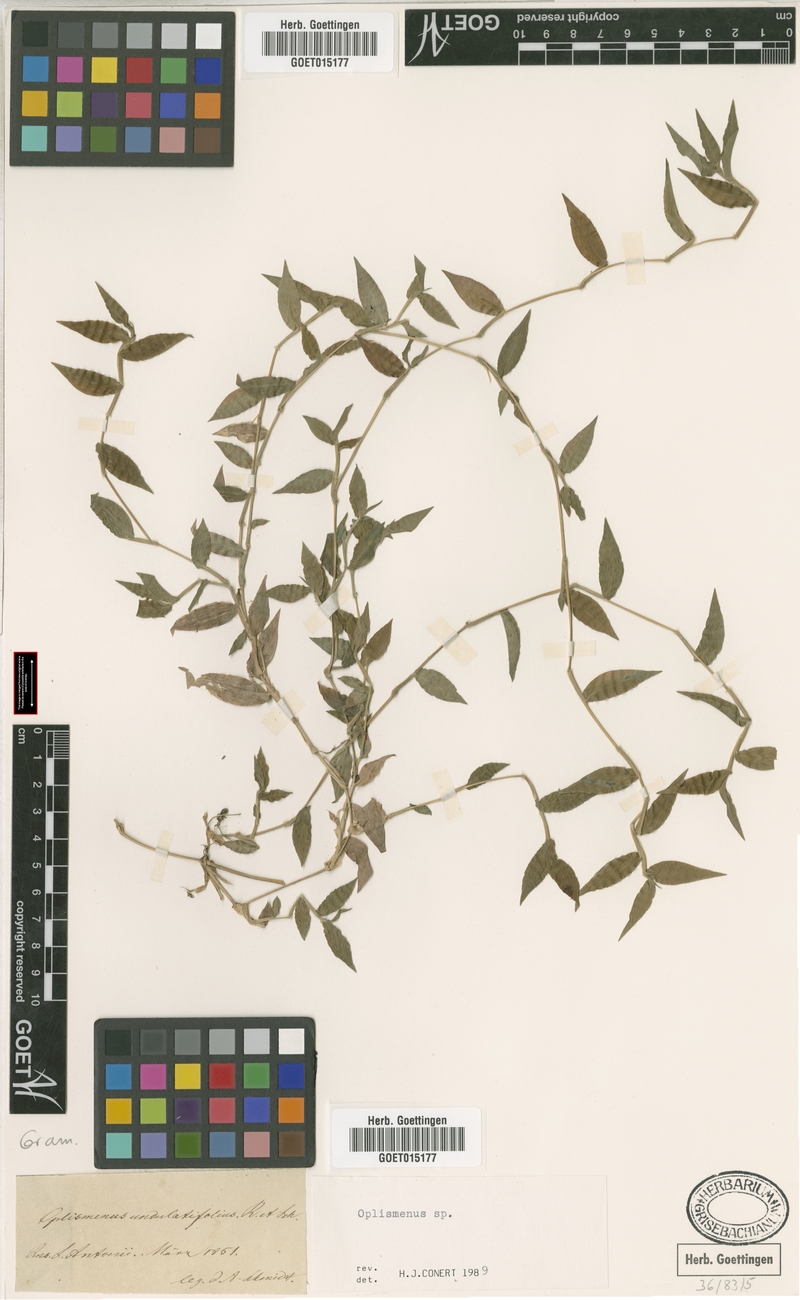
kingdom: Plantae
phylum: Tracheophyta
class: Liliopsida
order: Poales
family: Poaceae
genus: Oplismenus
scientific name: Oplismenus
